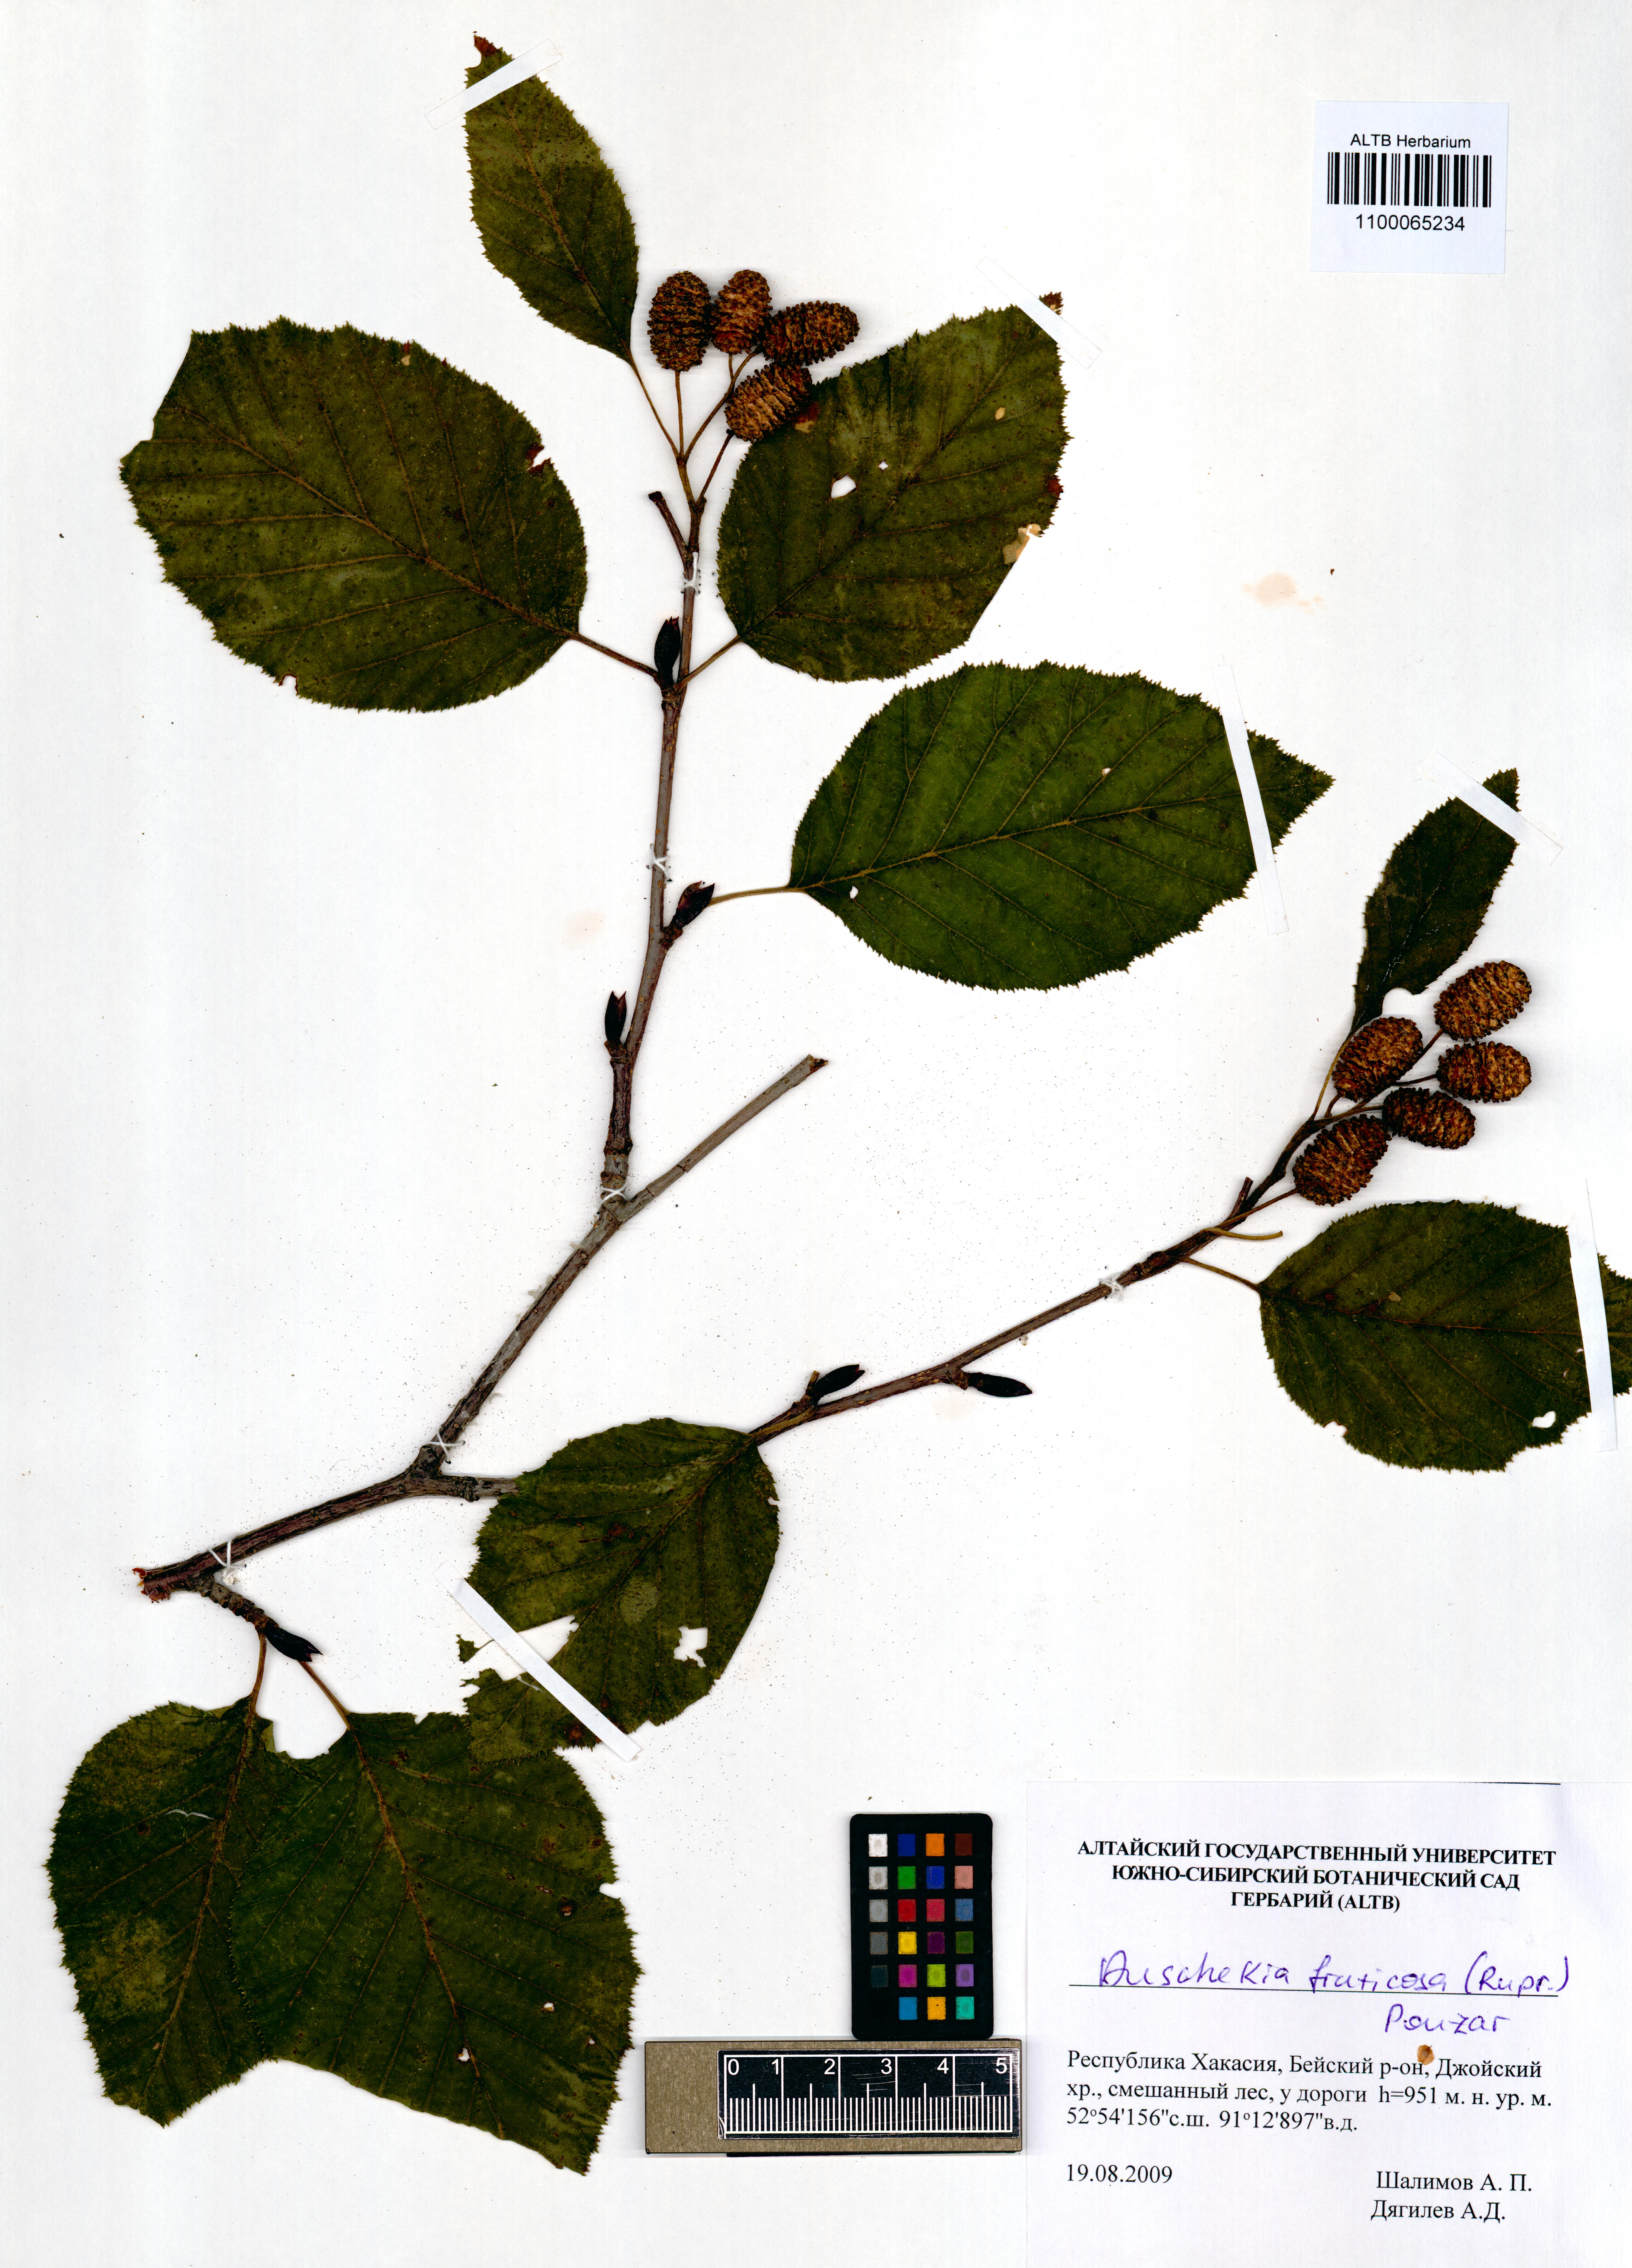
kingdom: Plantae
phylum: Tracheophyta
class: Magnoliopsida
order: Fagales
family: Betulaceae
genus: Alnus
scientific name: Alnus alnobetula
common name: Green alder
